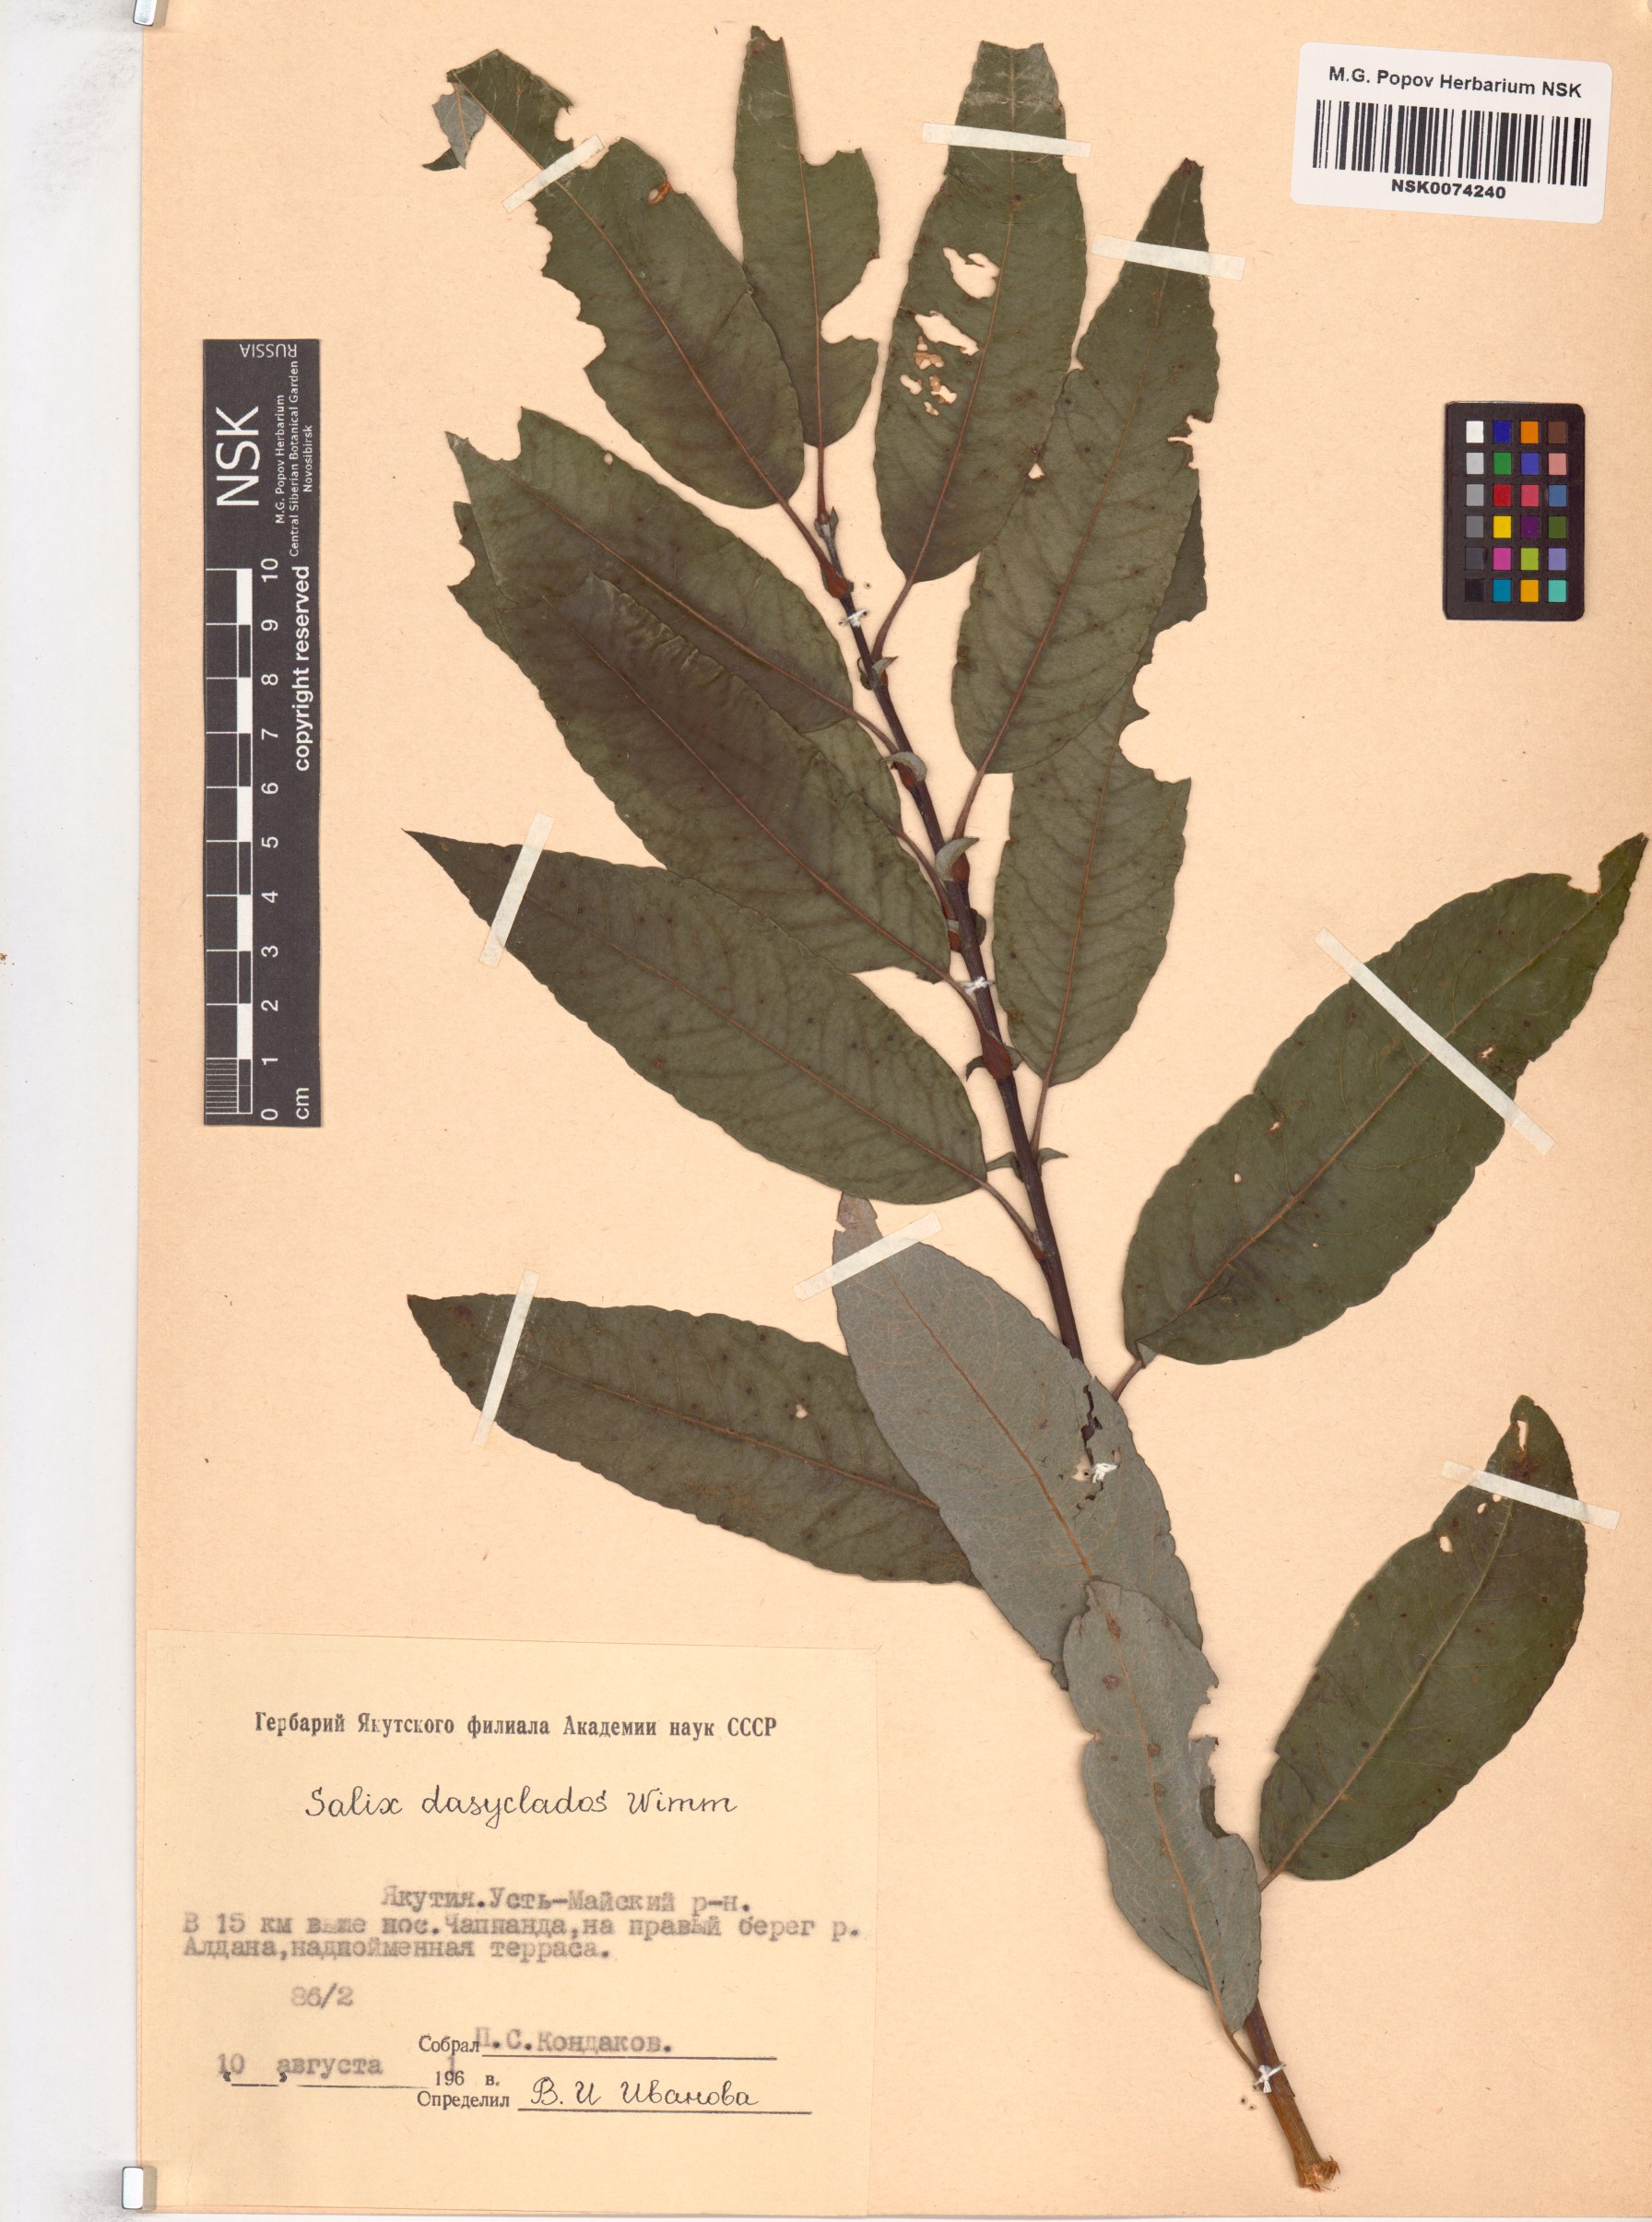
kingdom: Plantae
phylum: Tracheophyta
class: Magnoliopsida
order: Malpighiales
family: Salicaceae
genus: Salix
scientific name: Salix gmelinii
